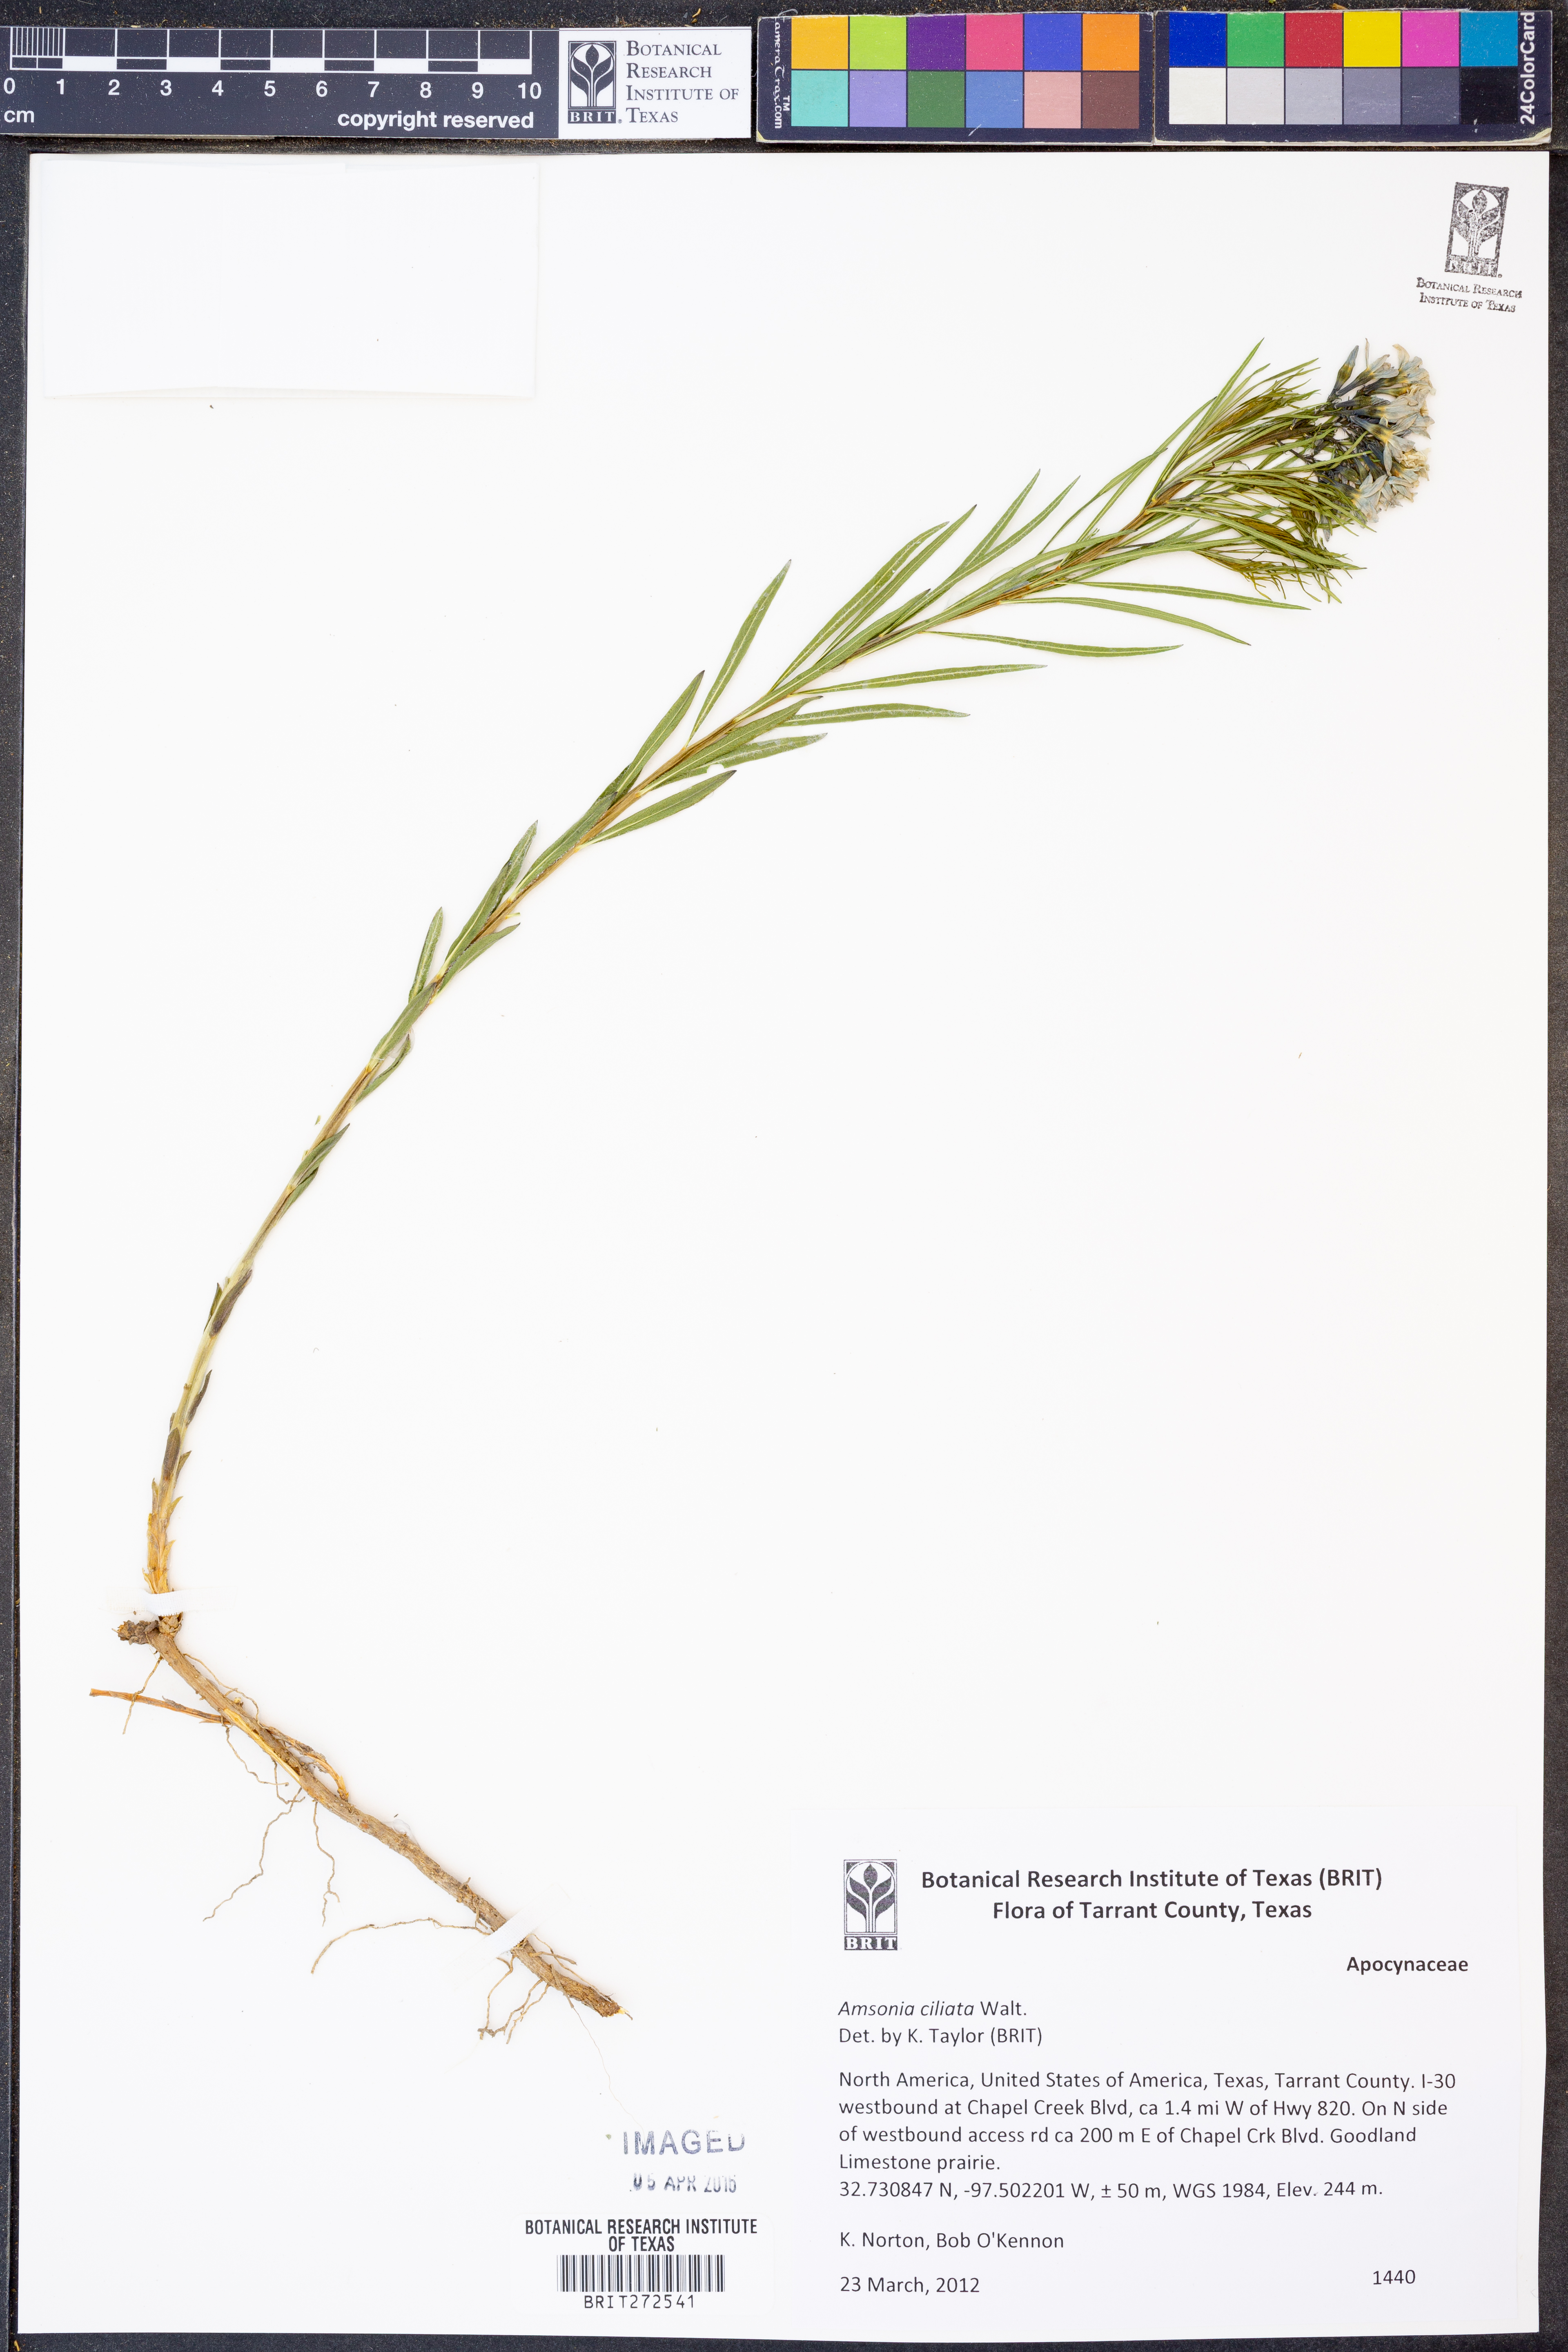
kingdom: Plantae
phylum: Tracheophyta
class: Magnoliopsida
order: Gentianales
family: Apocynaceae
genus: Amsonia
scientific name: Amsonia ciliata
